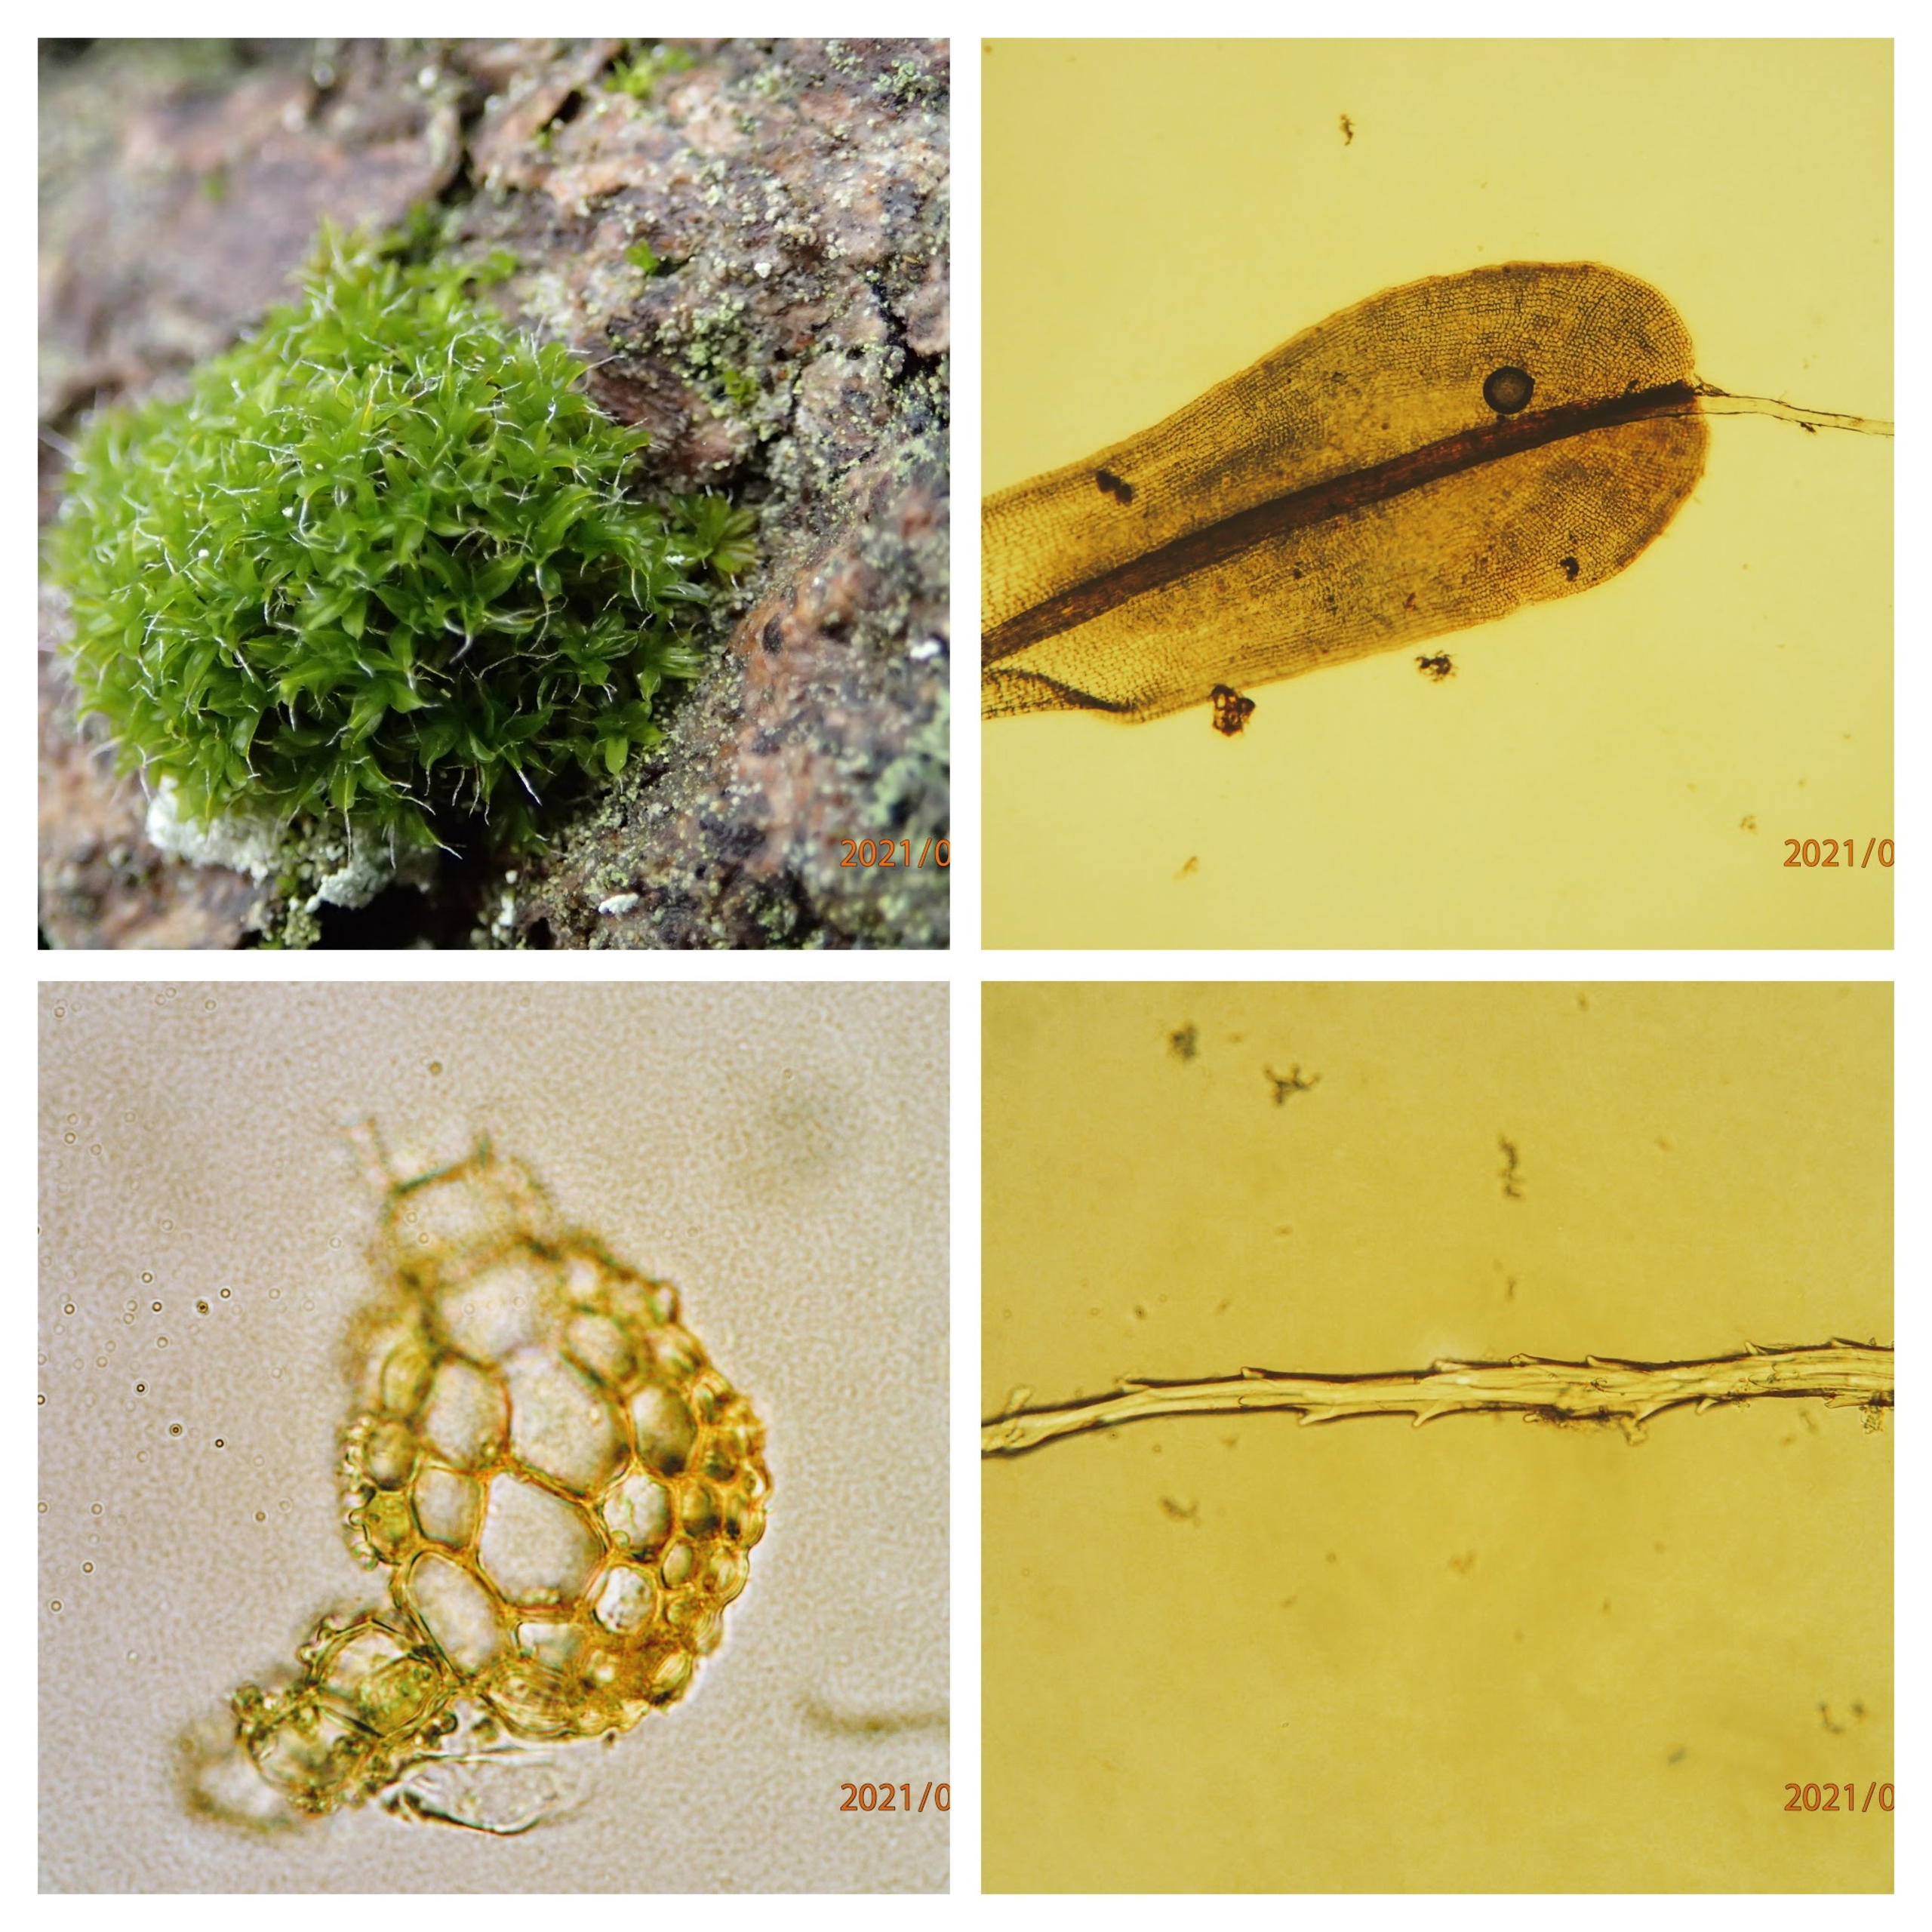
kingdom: Plantae
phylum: Bryophyta
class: Bryopsida
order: Pottiales
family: Pottiaceae
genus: Syntrichia
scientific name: Syntrichia virescens
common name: Grøn hårstjerne
